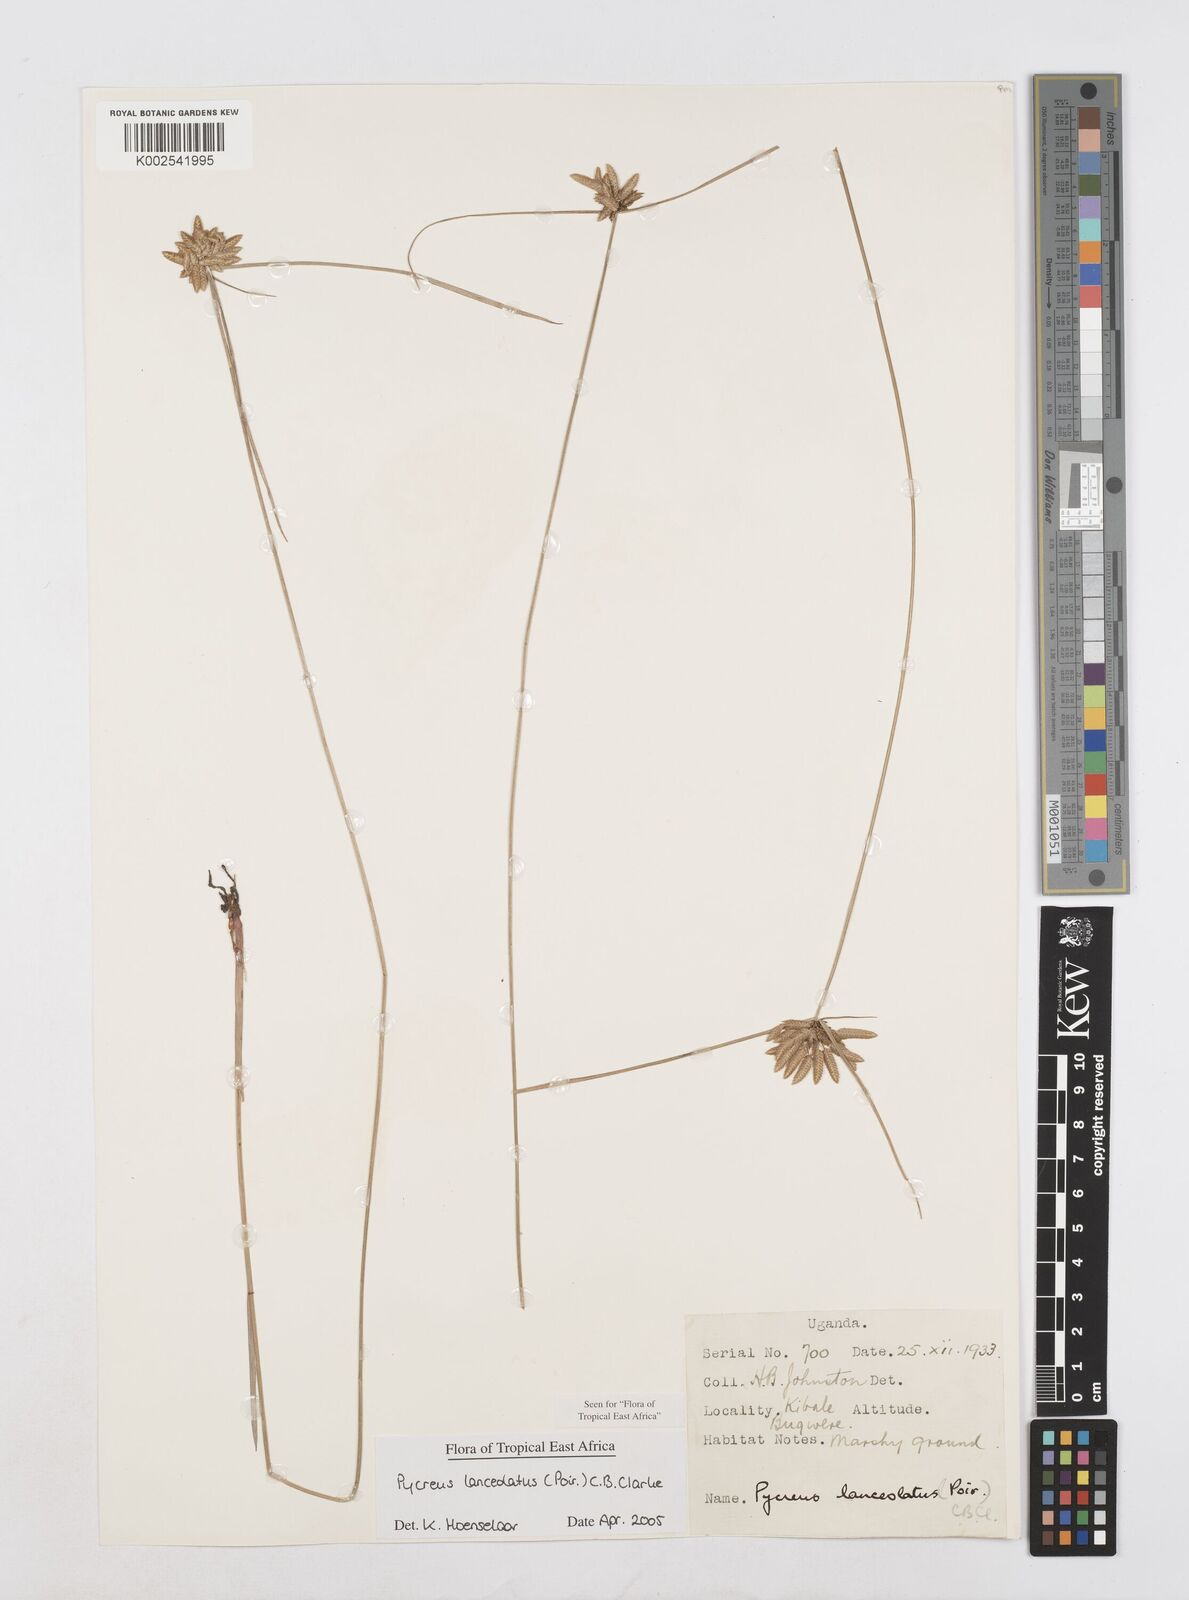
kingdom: Plantae
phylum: Tracheophyta
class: Liliopsida
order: Poales
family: Cyperaceae
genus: Cyperus
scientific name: Cyperus lanceolatus
